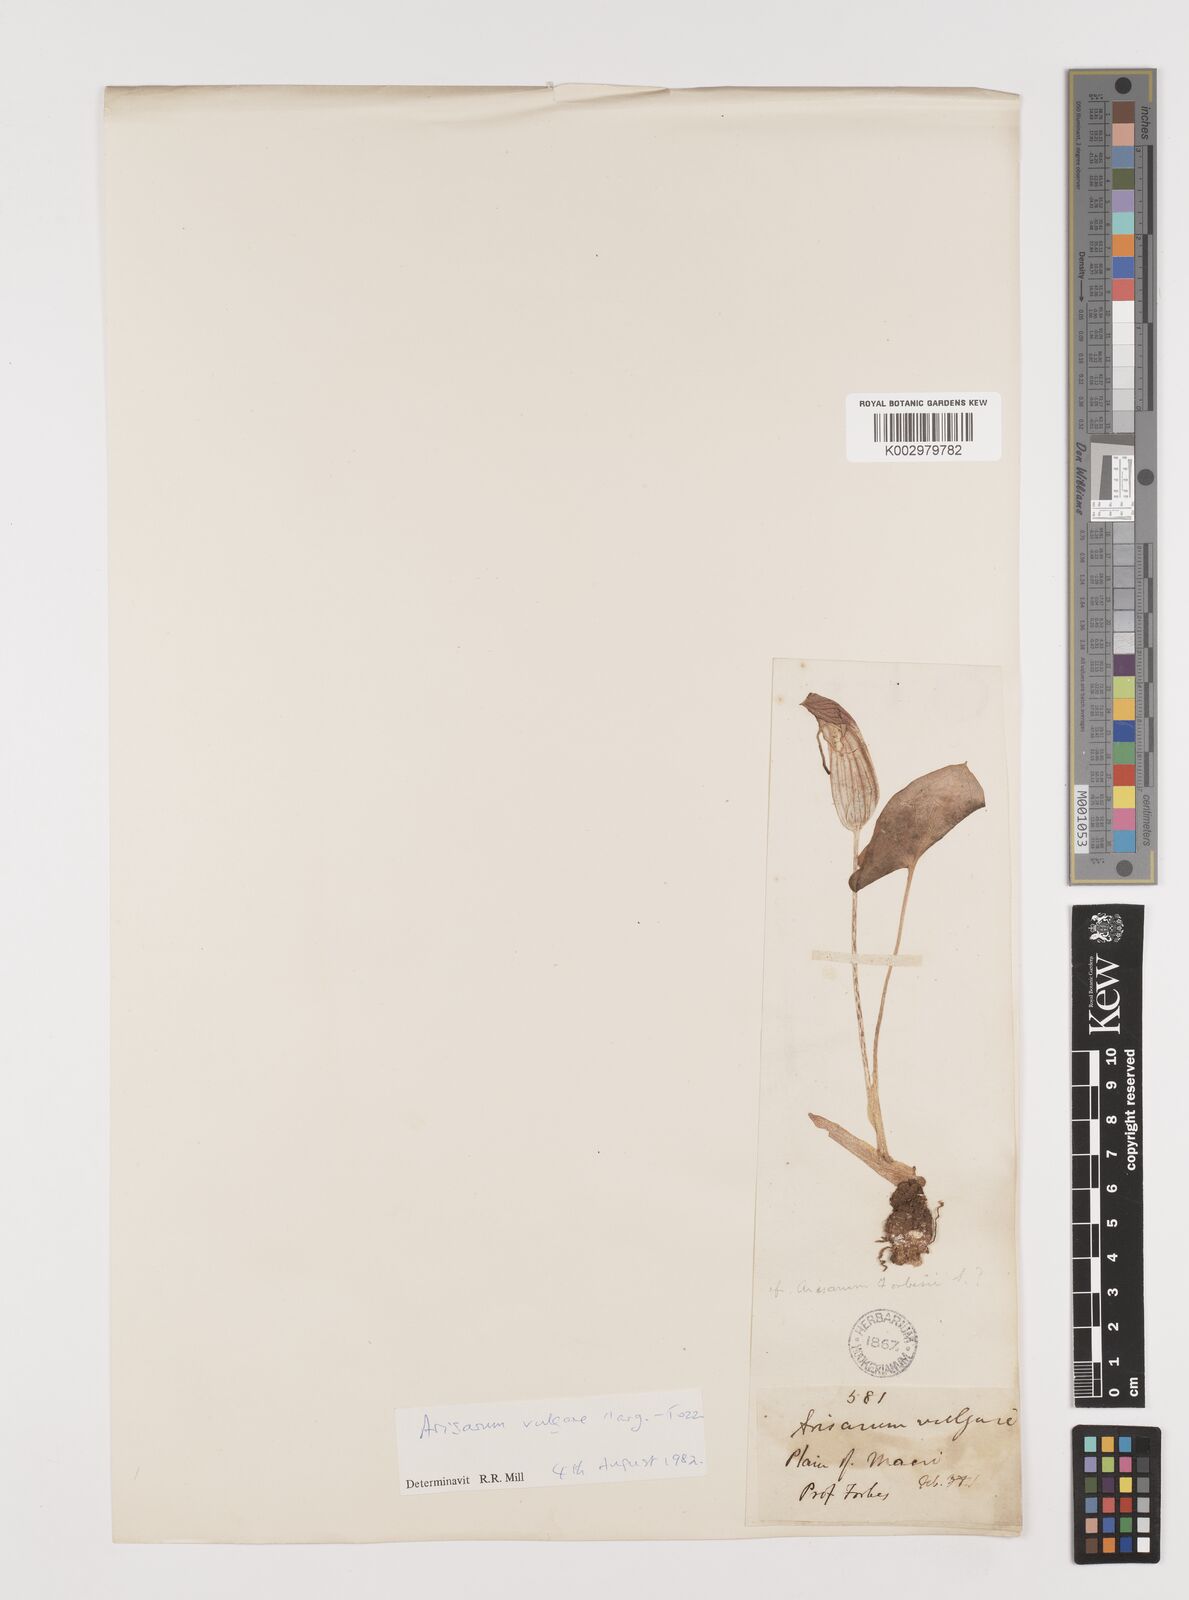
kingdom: Plantae
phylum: Tracheophyta
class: Liliopsida
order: Alismatales
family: Araceae
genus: Arisarum
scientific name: Arisarum vulgare
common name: Common arisarum
